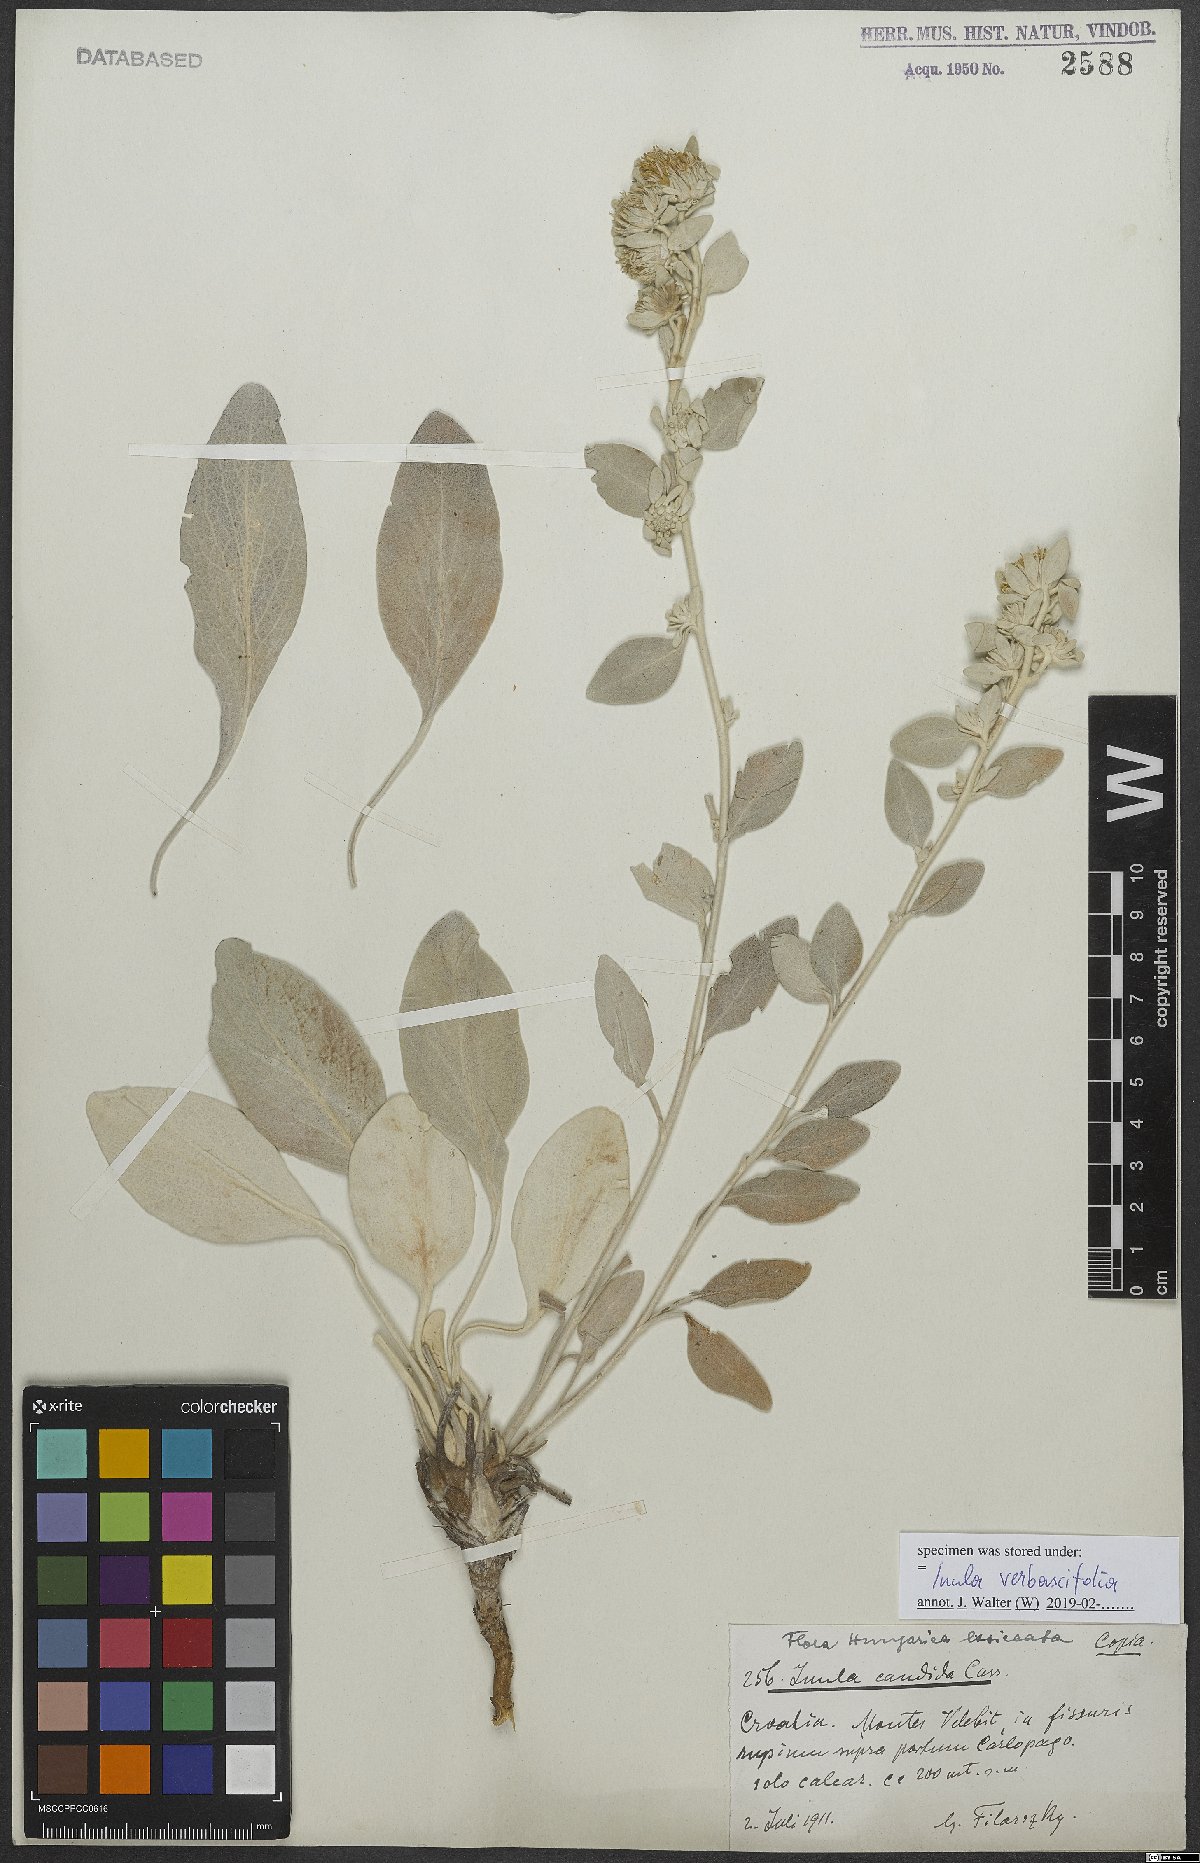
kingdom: Plantae
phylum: Tracheophyta
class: Magnoliopsida
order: Asterales
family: Asteraceae
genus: Pentanema
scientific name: Pentanema verbascifolium
